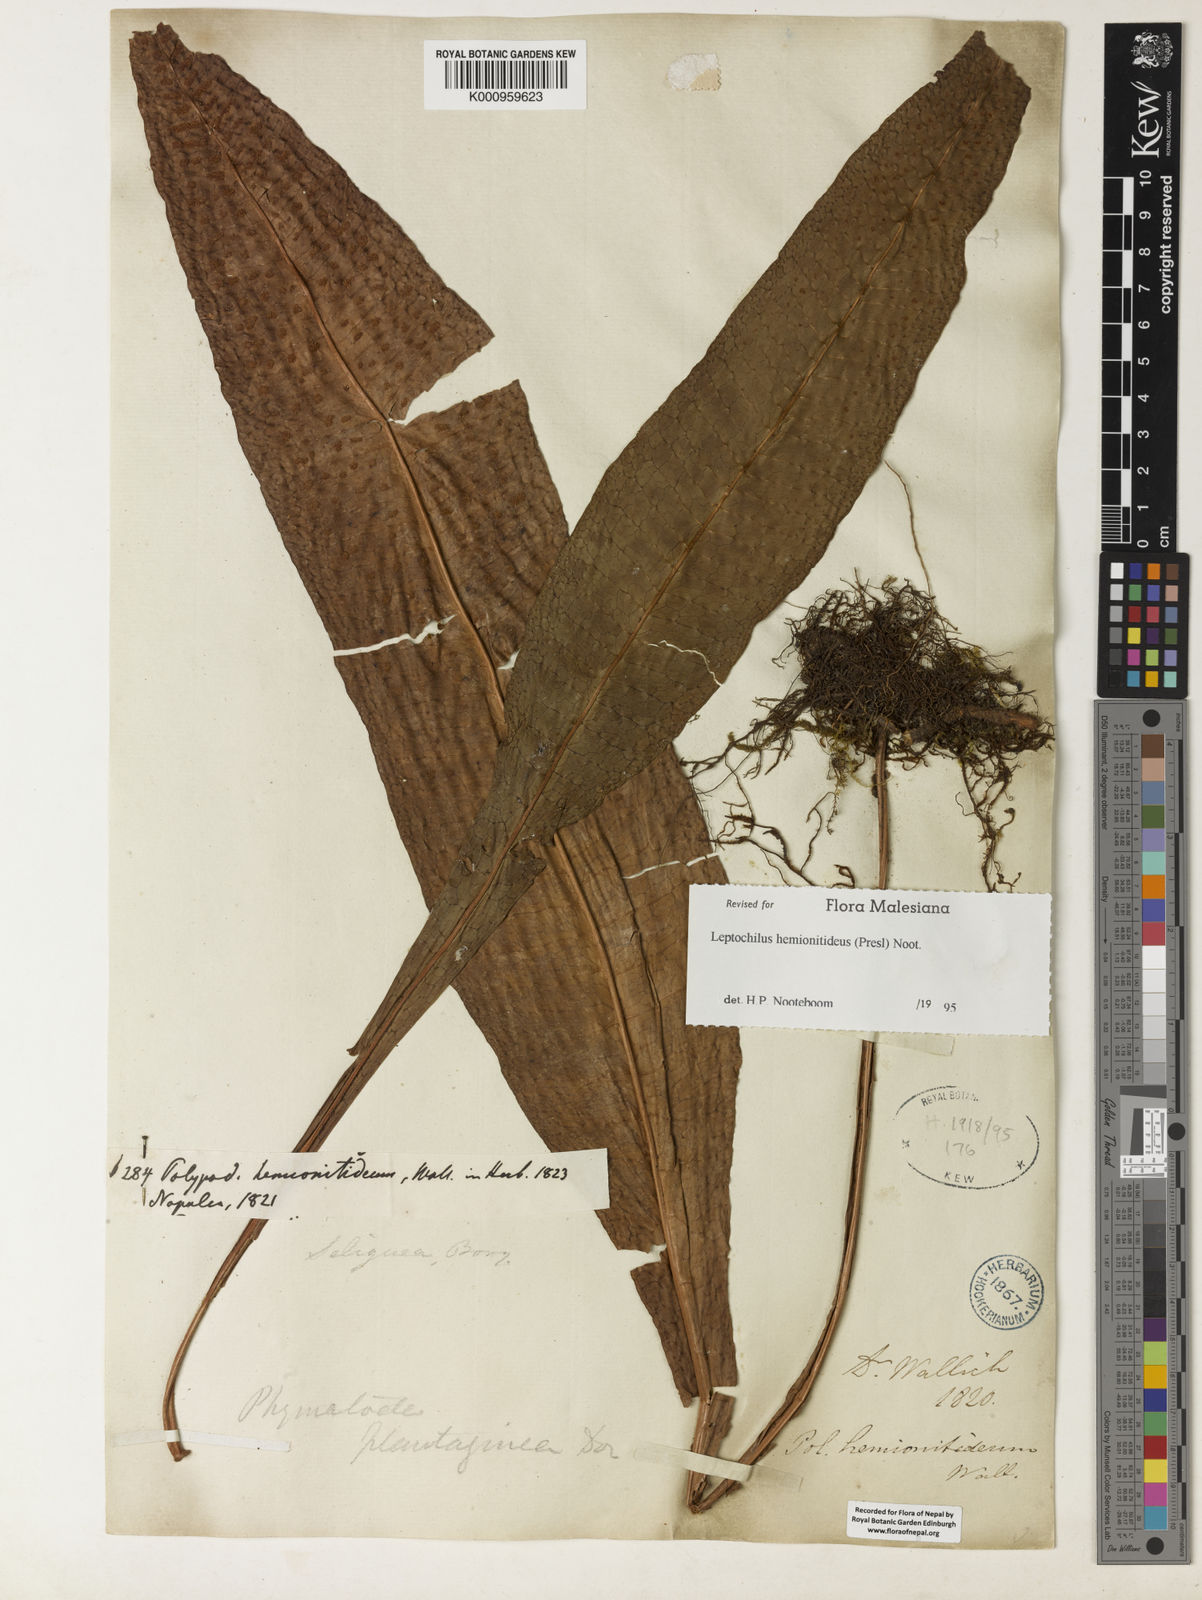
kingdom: Plantae
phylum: Tracheophyta
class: Polypodiopsida
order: Polypodiales
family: Polypodiaceae
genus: Leptochilus
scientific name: Leptochilus hemionitideus
